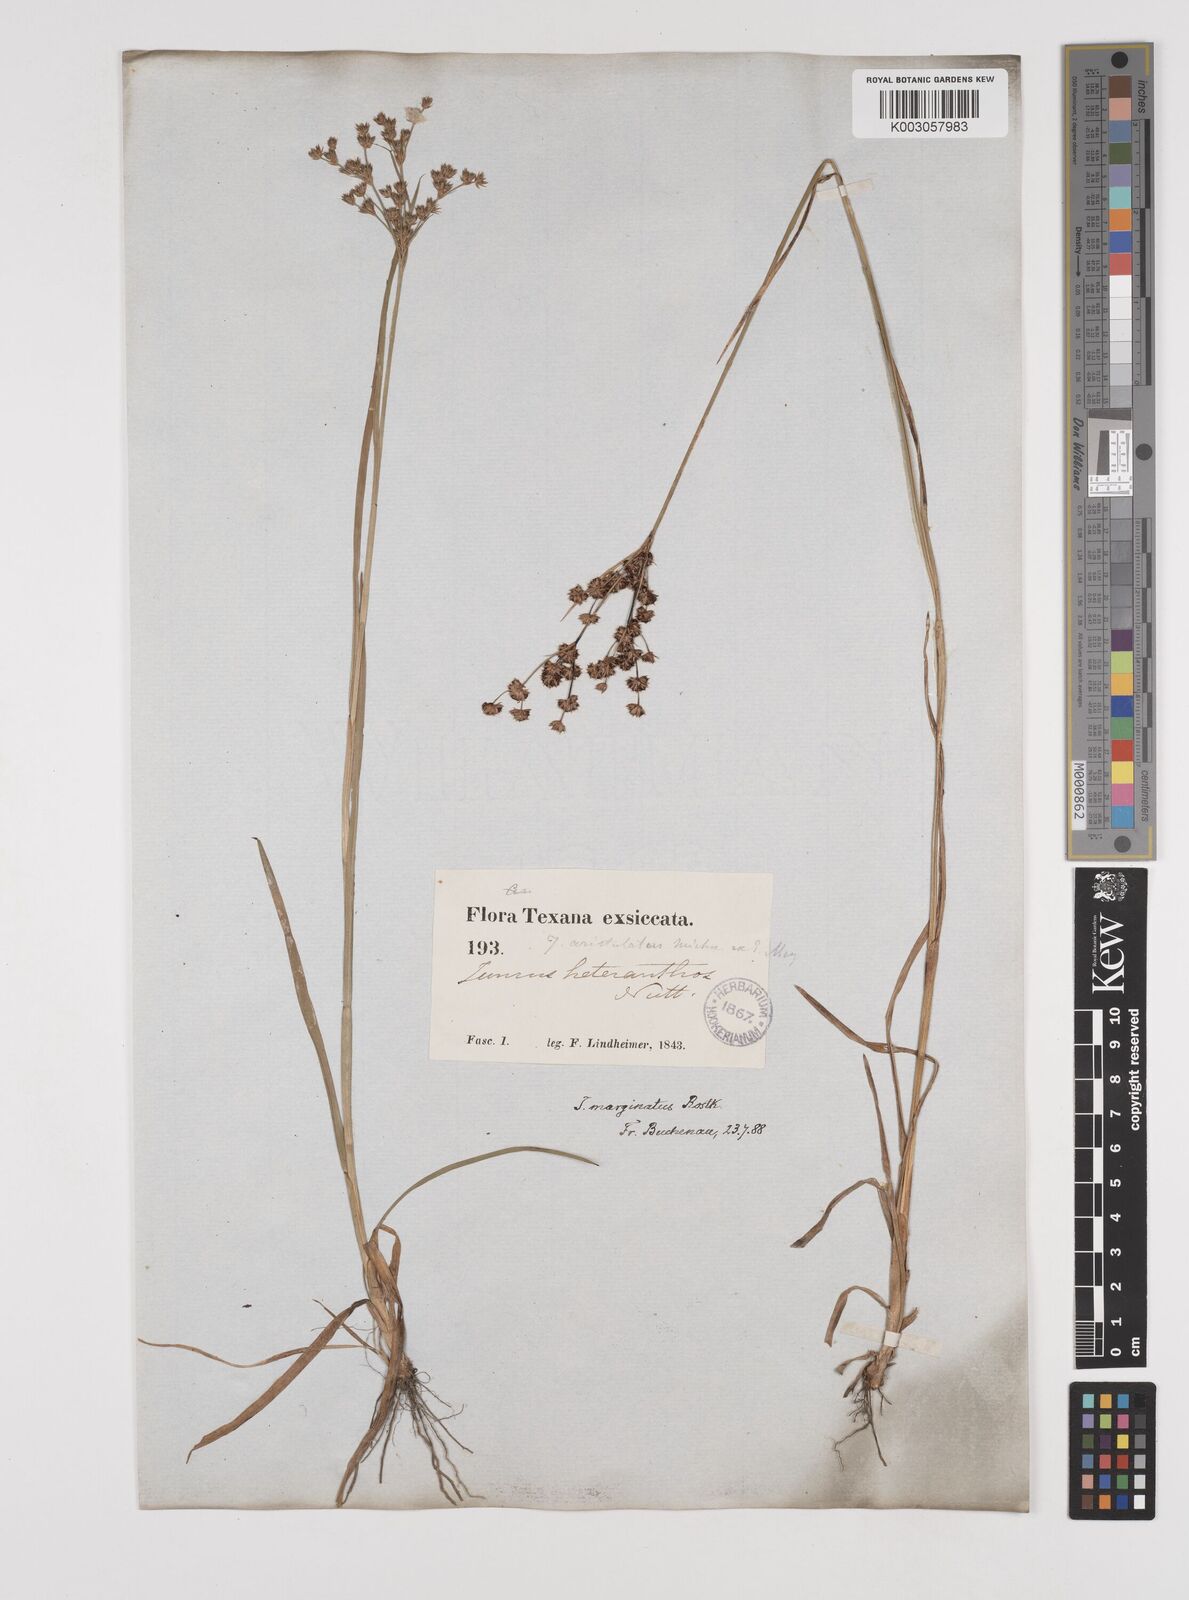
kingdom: Plantae
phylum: Tracheophyta
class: Liliopsida
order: Poales
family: Juncaceae
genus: Juncus
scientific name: Juncus marginatus
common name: Grass-leaf rush
